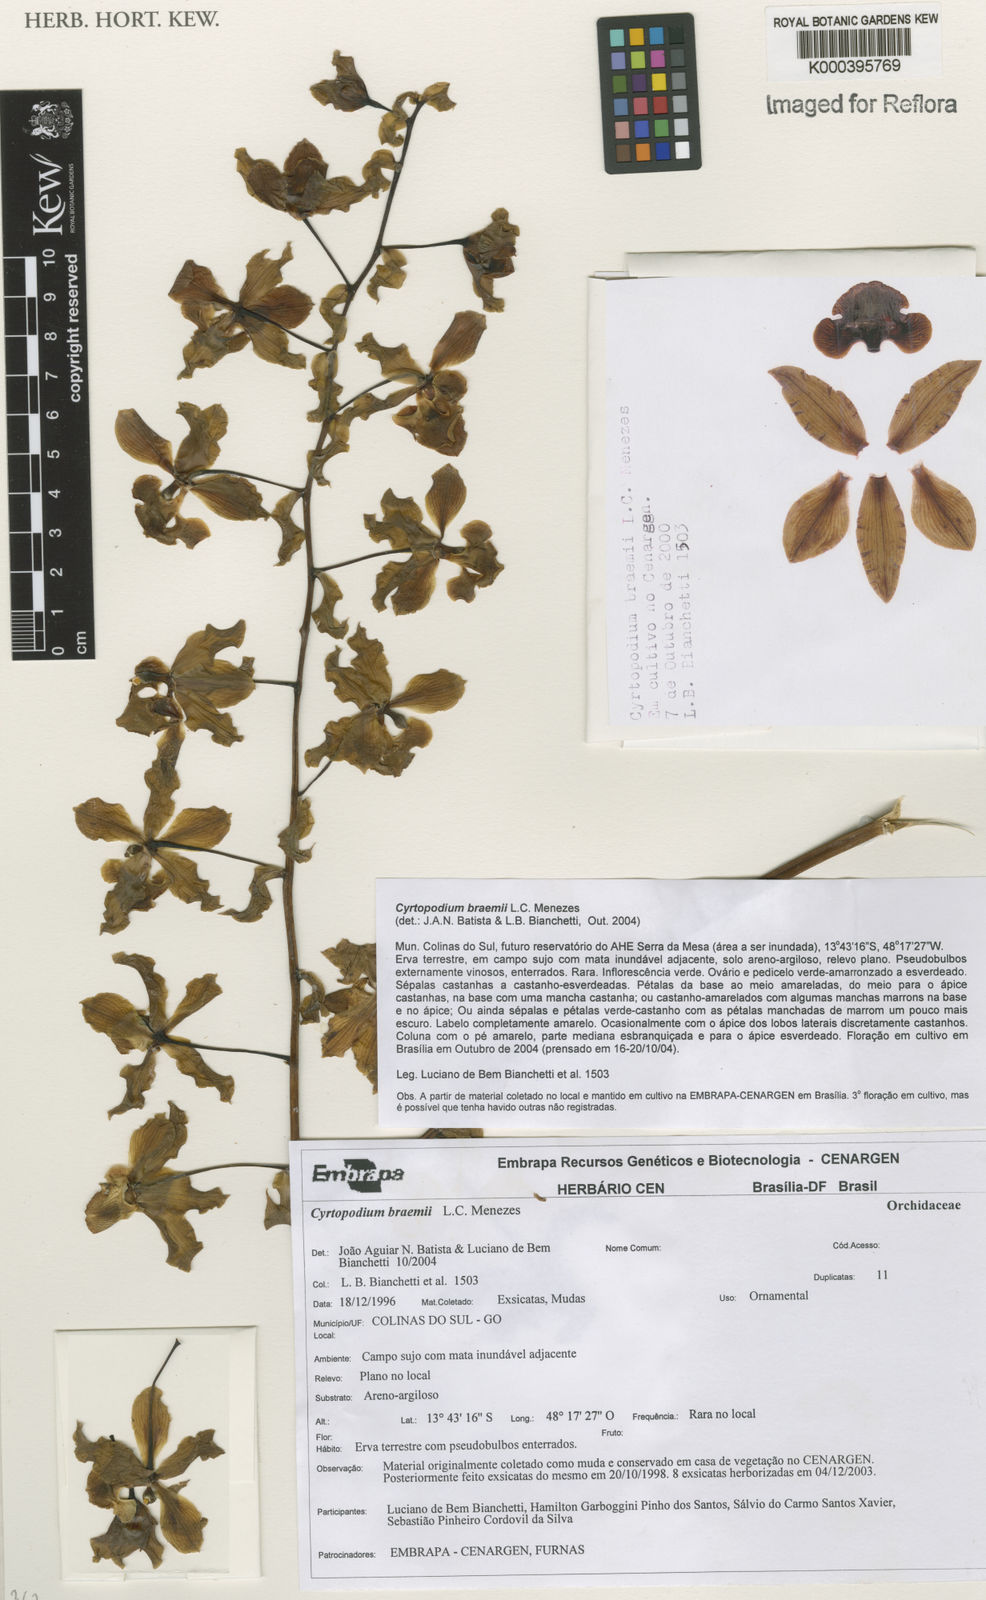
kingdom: Plantae
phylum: Tracheophyta
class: Liliopsida
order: Asparagales
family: Orchidaceae
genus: Cyrtopodium
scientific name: Cyrtopodium braemii
